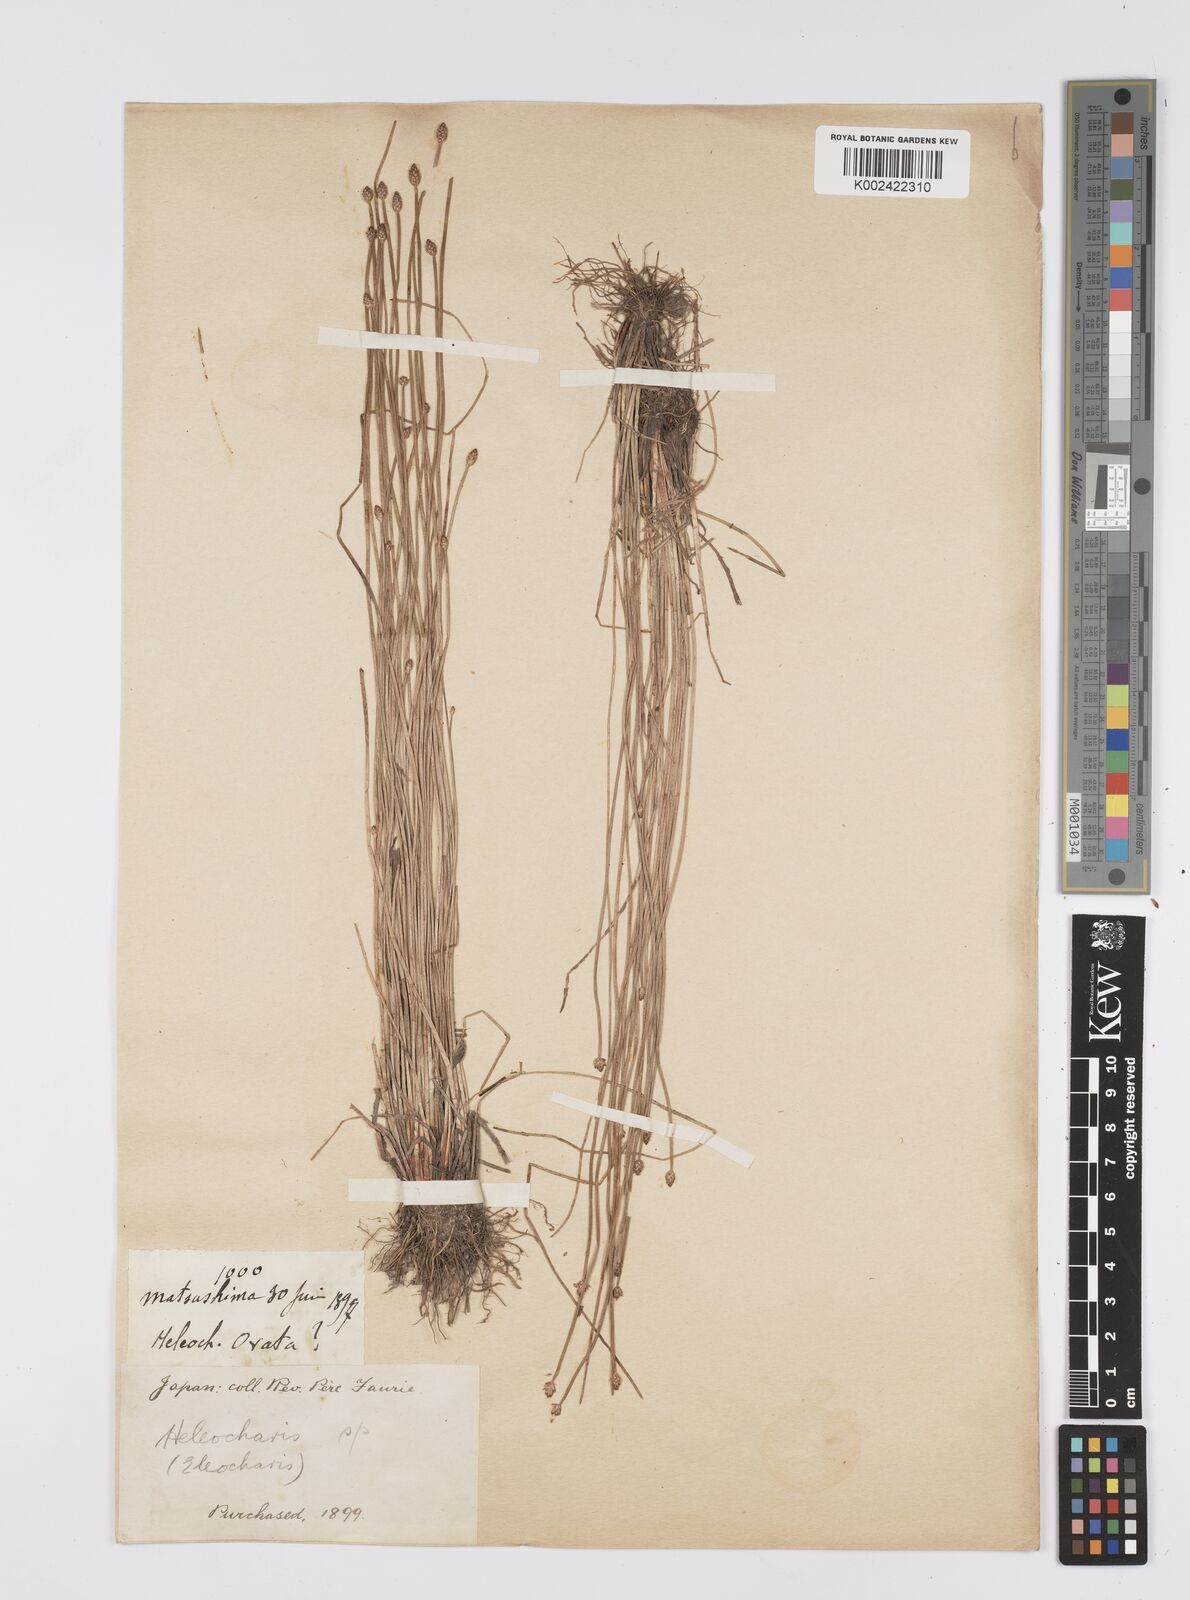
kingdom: Plantae
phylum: Tracheophyta
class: Liliopsida
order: Poales
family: Cyperaceae
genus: Eleocharis
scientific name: Eleocharis
